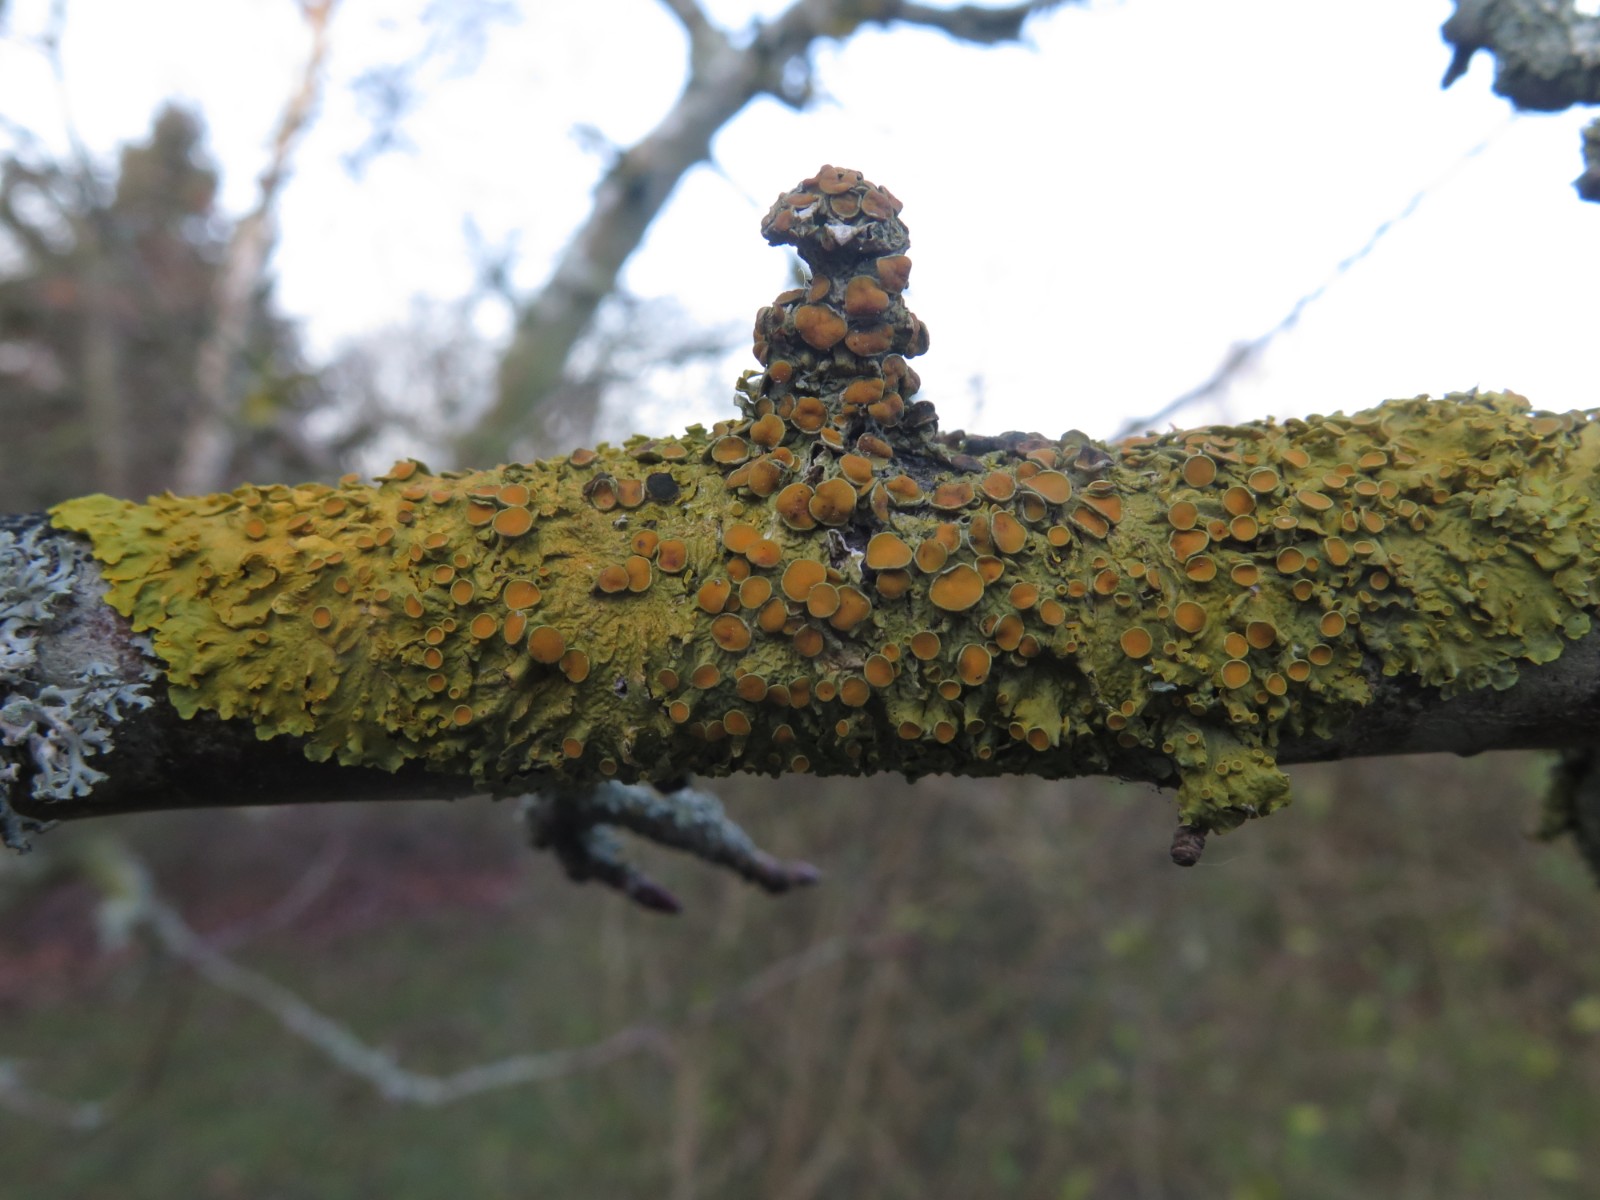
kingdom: Fungi
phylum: Ascomycota
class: Lecanoromycetes
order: Teloschistales
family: Teloschistaceae
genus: Xanthoria
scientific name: Xanthoria parietina
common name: almindelig væggelav
